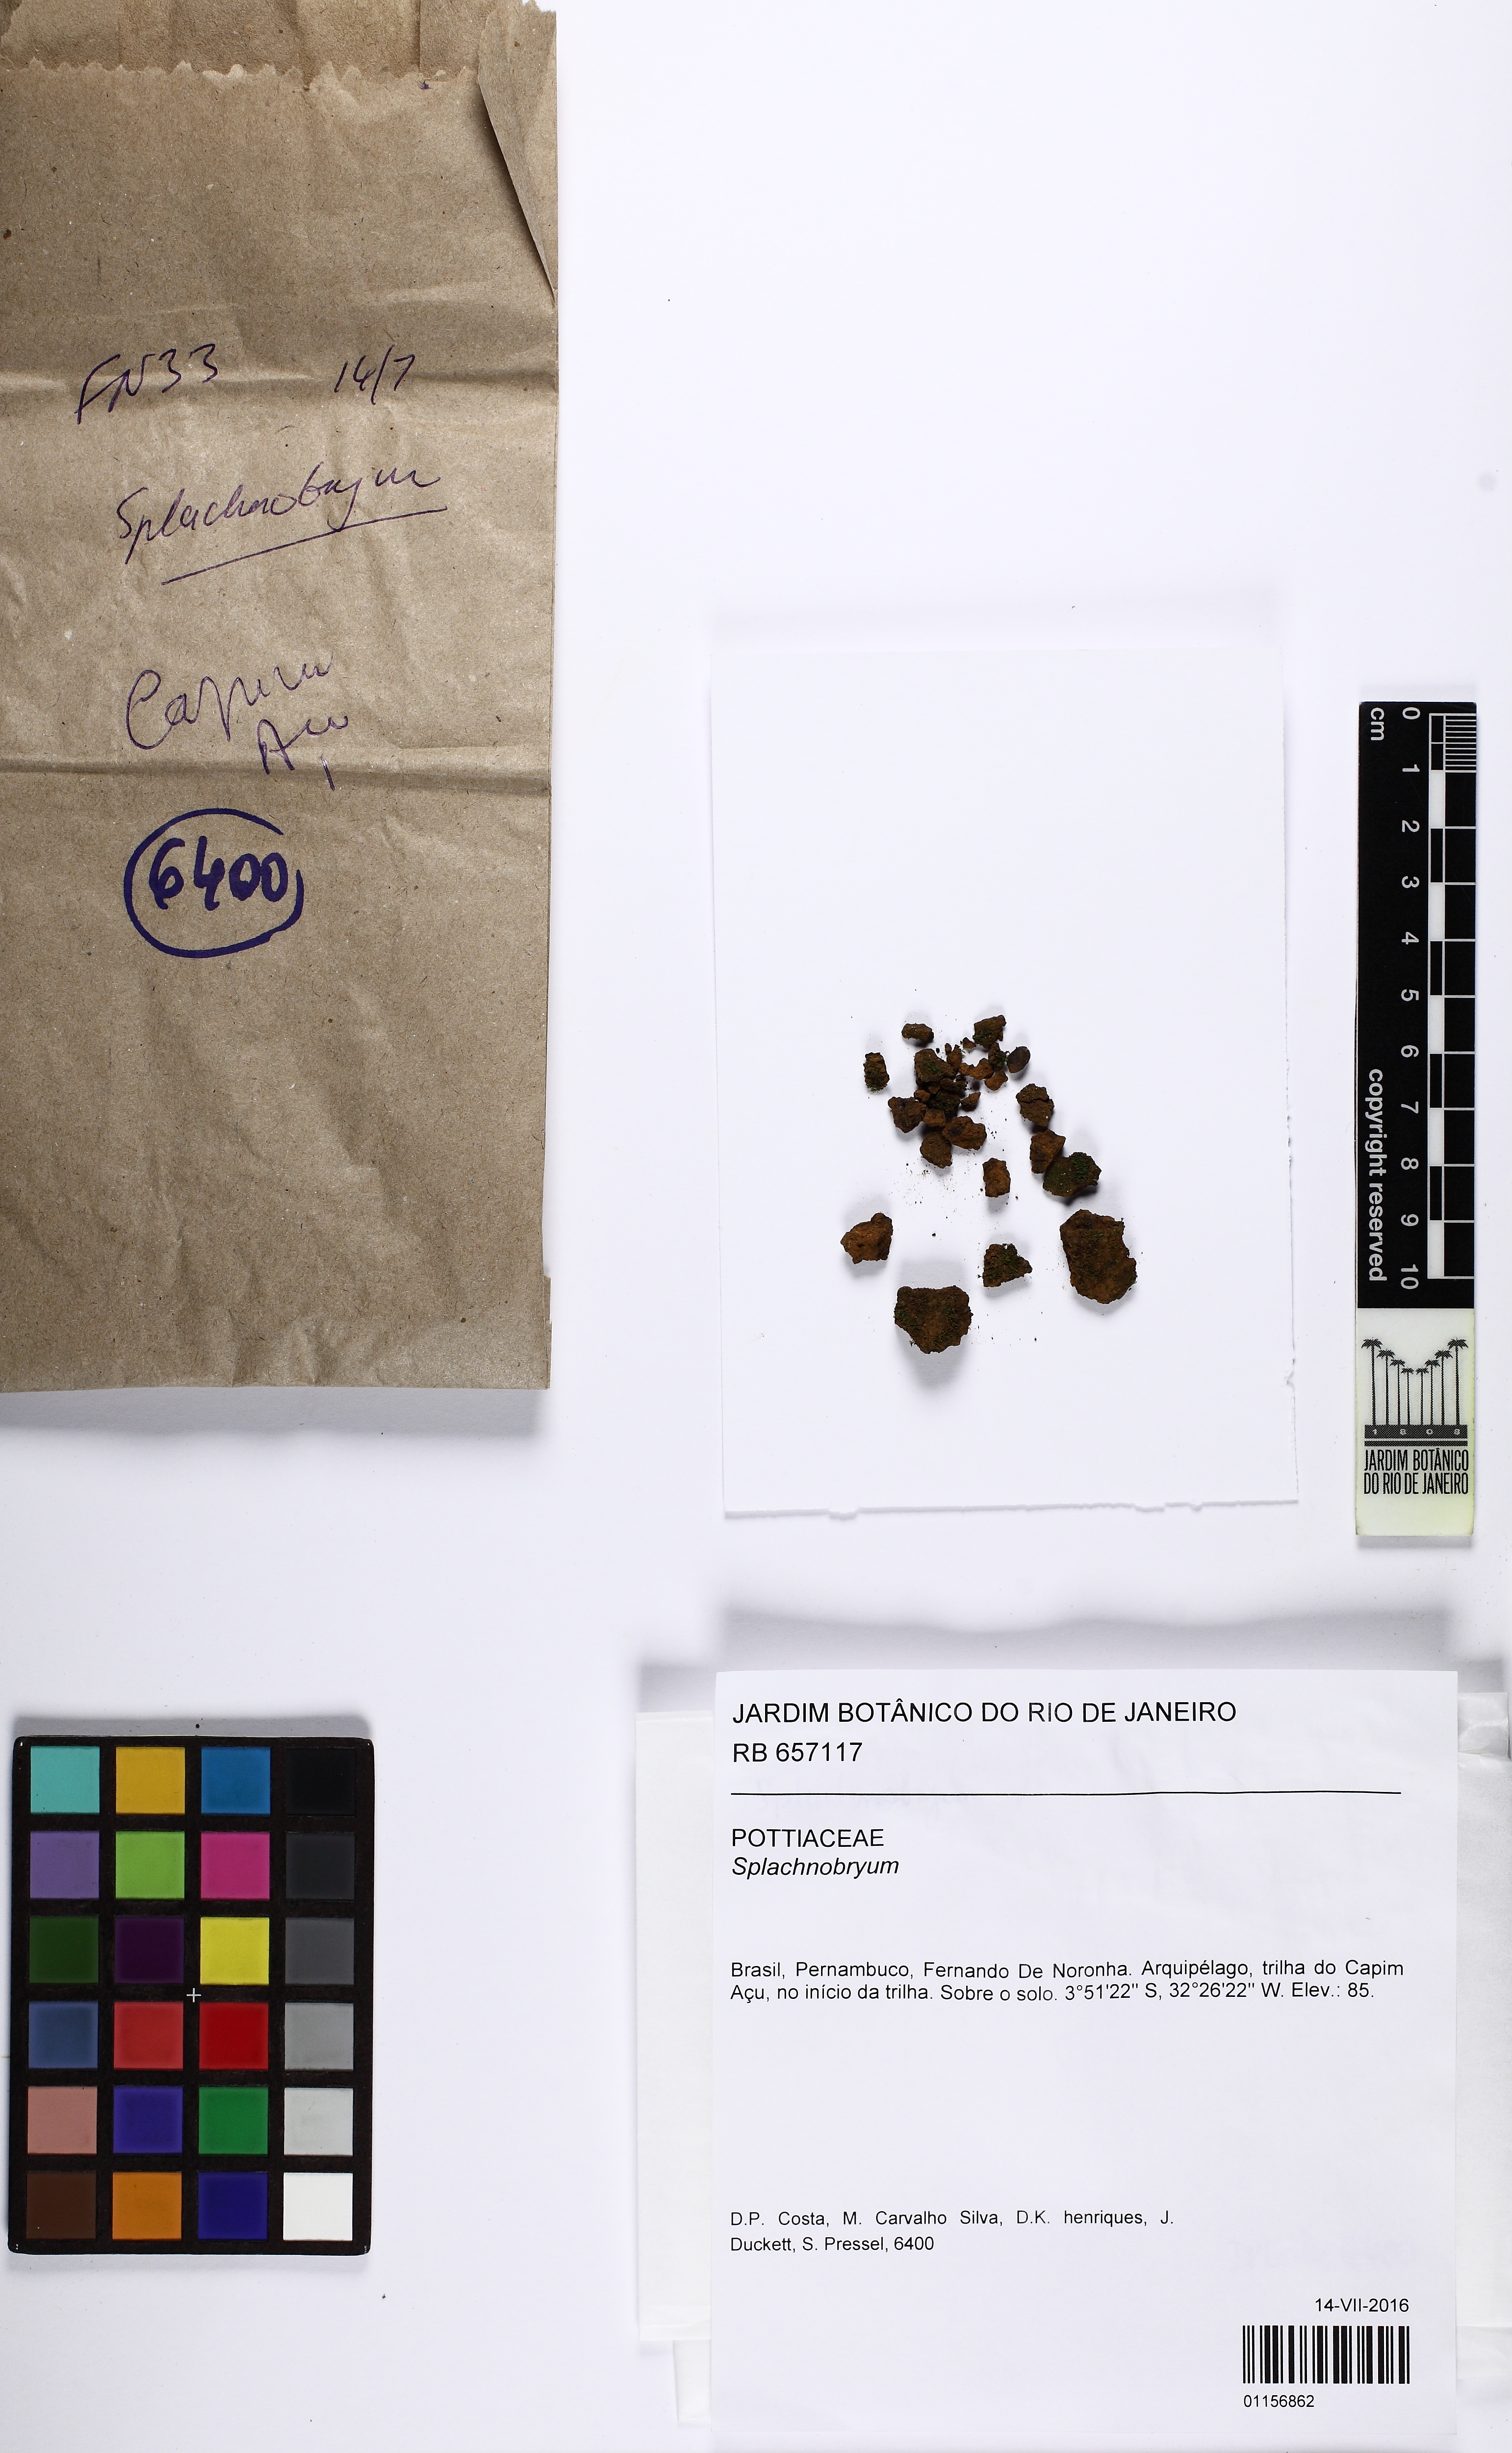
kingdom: Plantae
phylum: Bryophyta
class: Bryopsida
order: Pottiales
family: Splachnobryaceae
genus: Splachnobryum
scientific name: Splachnobryum
